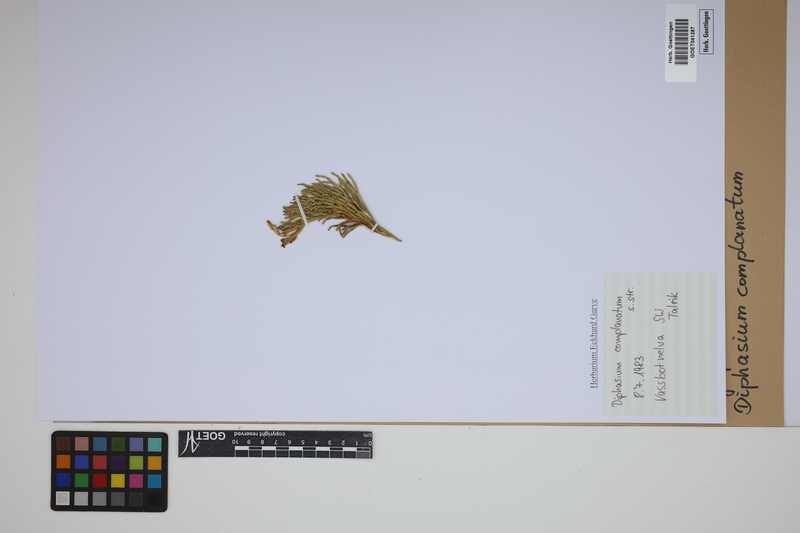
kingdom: Plantae
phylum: Tracheophyta
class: Lycopodiopsida
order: Lycopodiales
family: Lycopodiaceae
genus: Diphasiastrum
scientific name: Diphasiastrum complanatum
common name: Northern running-pine
